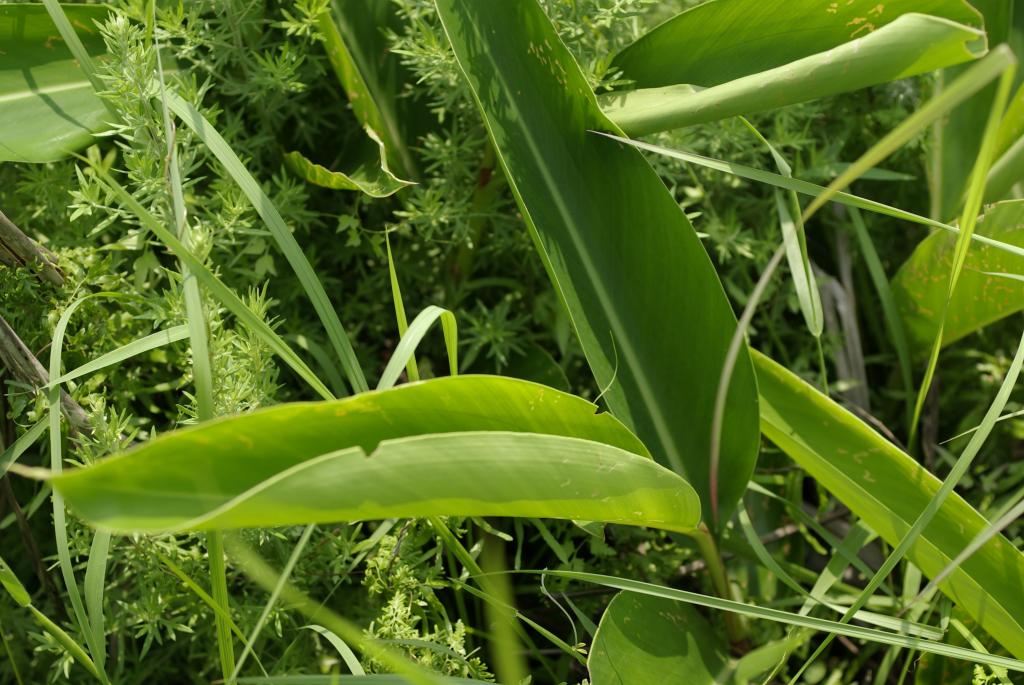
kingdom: Plantae
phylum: Tracheophyta
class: Liliopsida
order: Zingiberales
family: Zingiberaceae
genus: Alpinia
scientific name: Alpinia zerumbet
